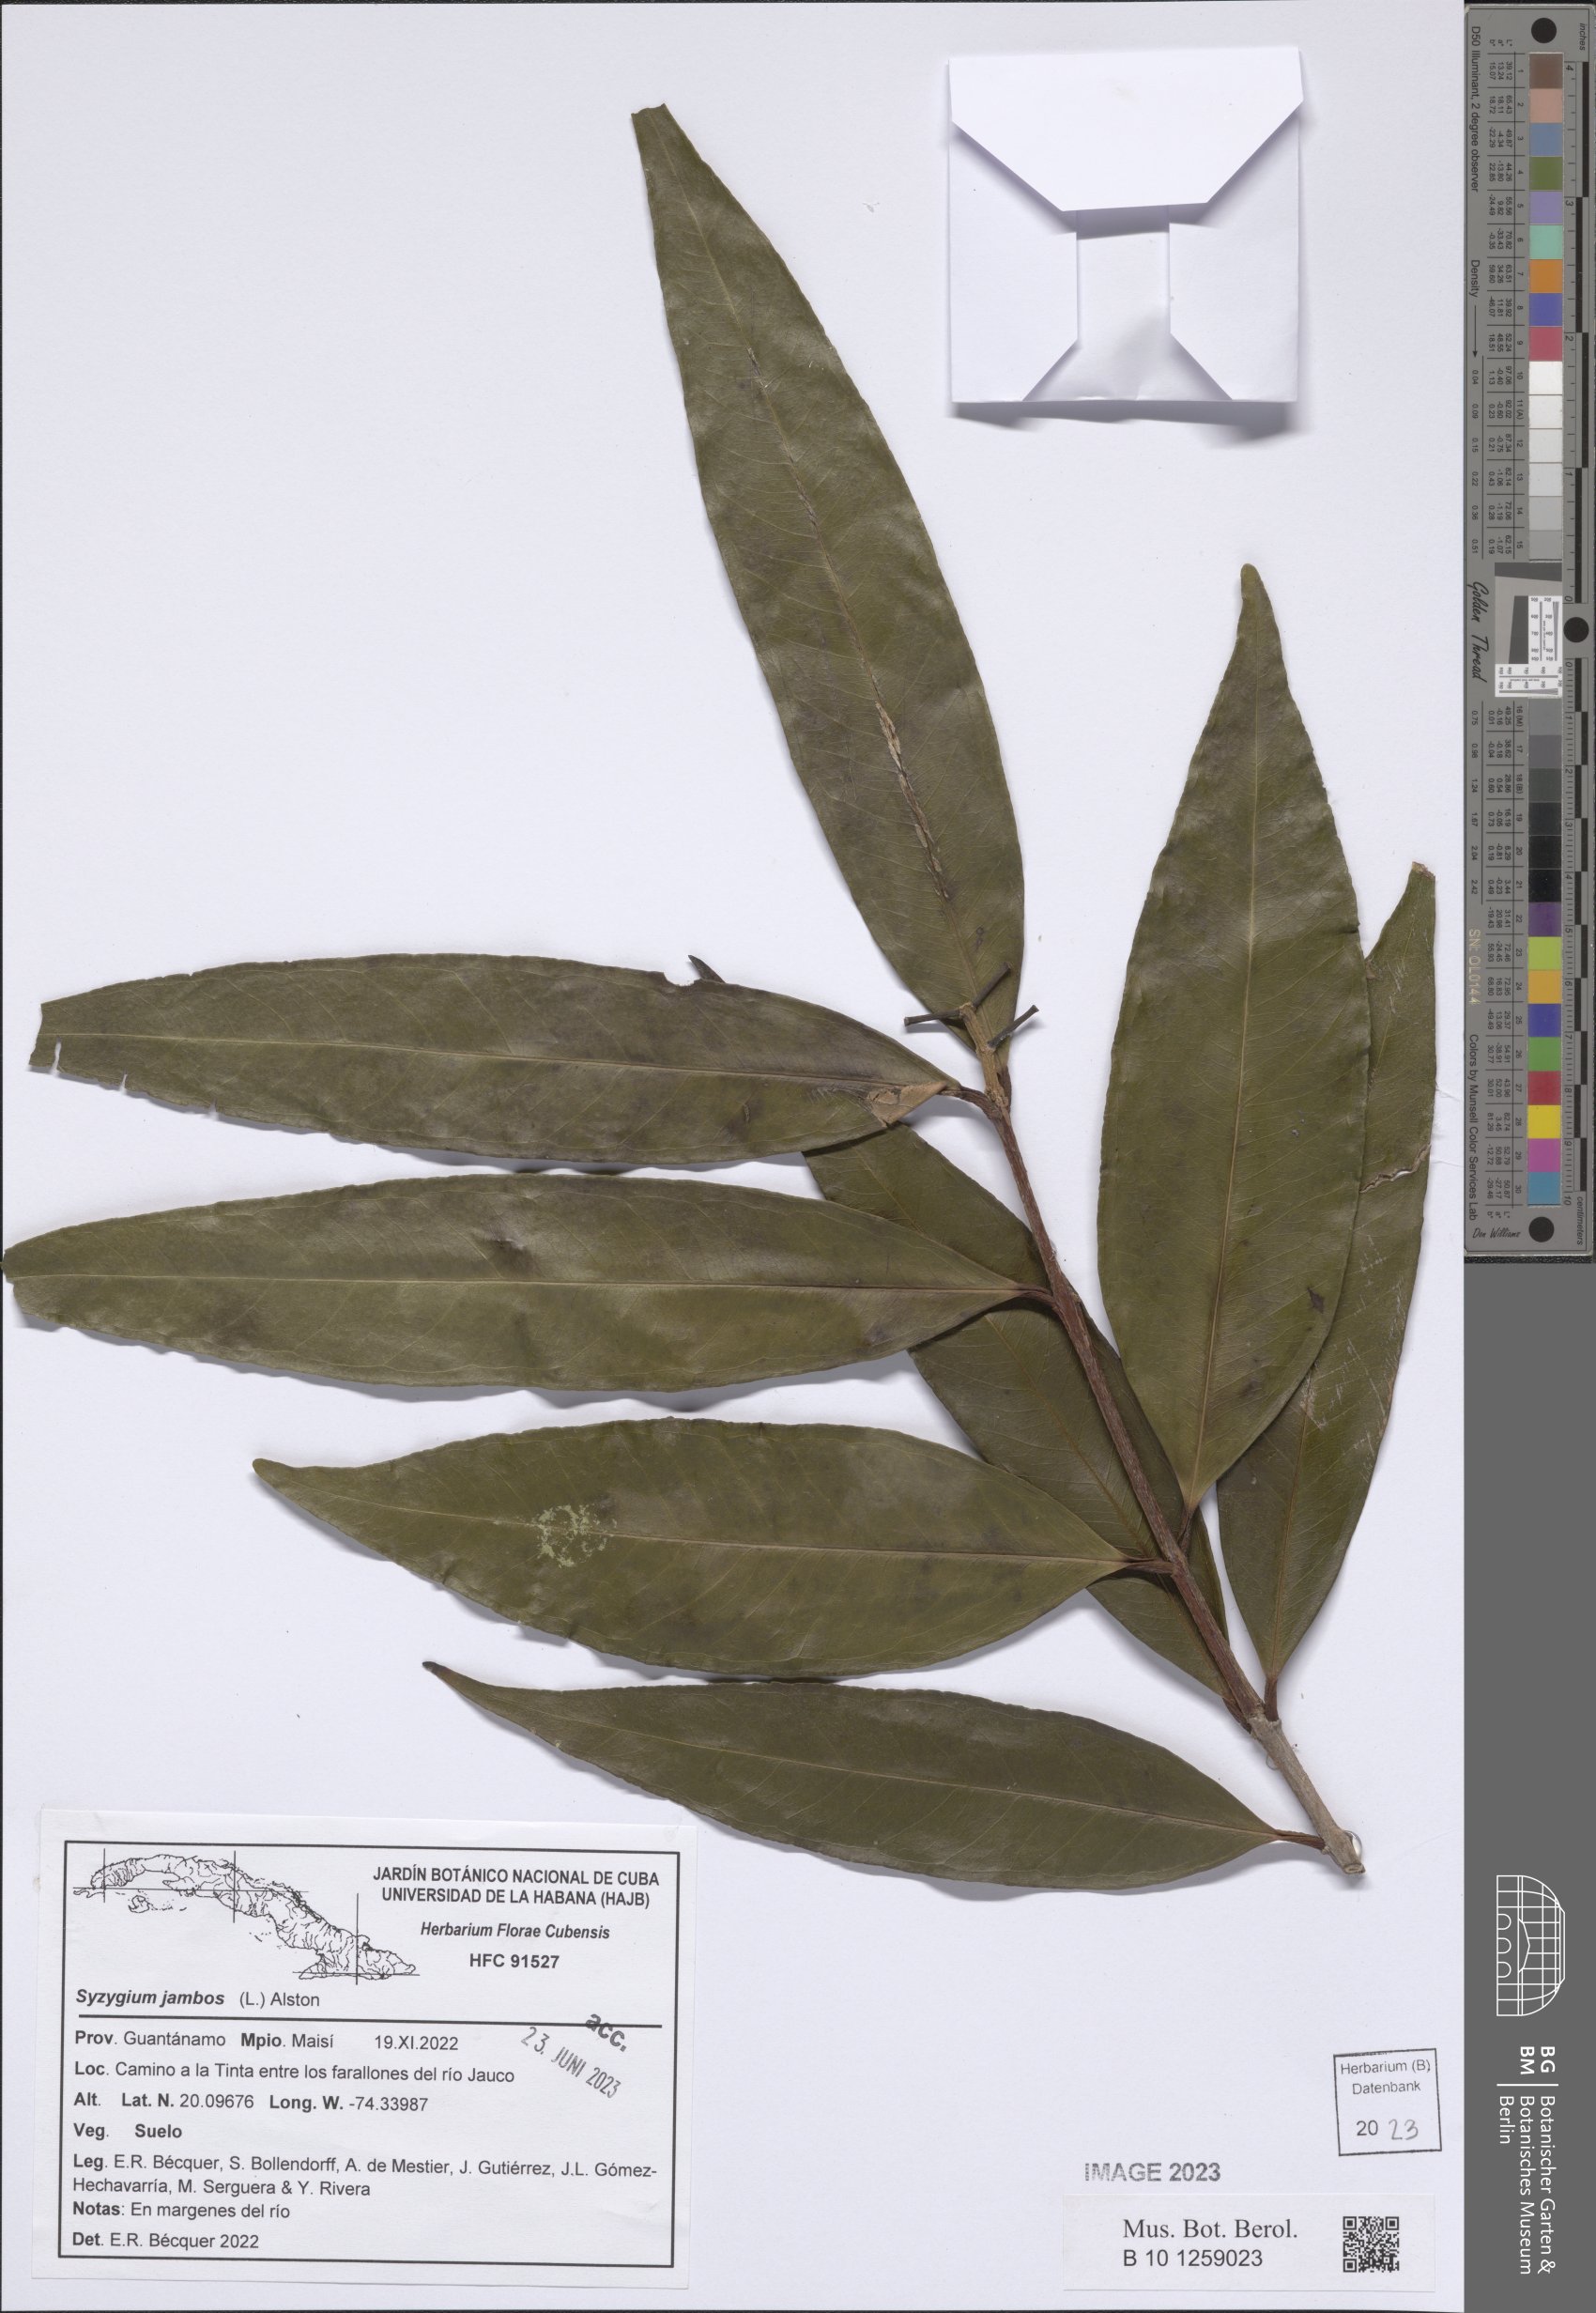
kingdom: Plantae
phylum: Tracheophyta
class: Magnoliopsida
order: Myrtales
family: Myrtaceae
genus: Syzygium
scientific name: Syzygium jambos
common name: Malabar plum
